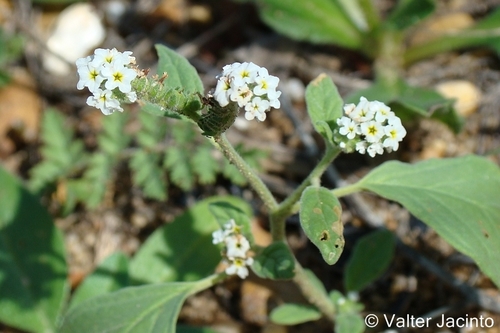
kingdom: Plantae
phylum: Tracheophyta
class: Magnoliopsida
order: Boraginales
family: Heliotropiaceae
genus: Heliotropium
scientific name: Heliotropium europaeum
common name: European heliotrope
